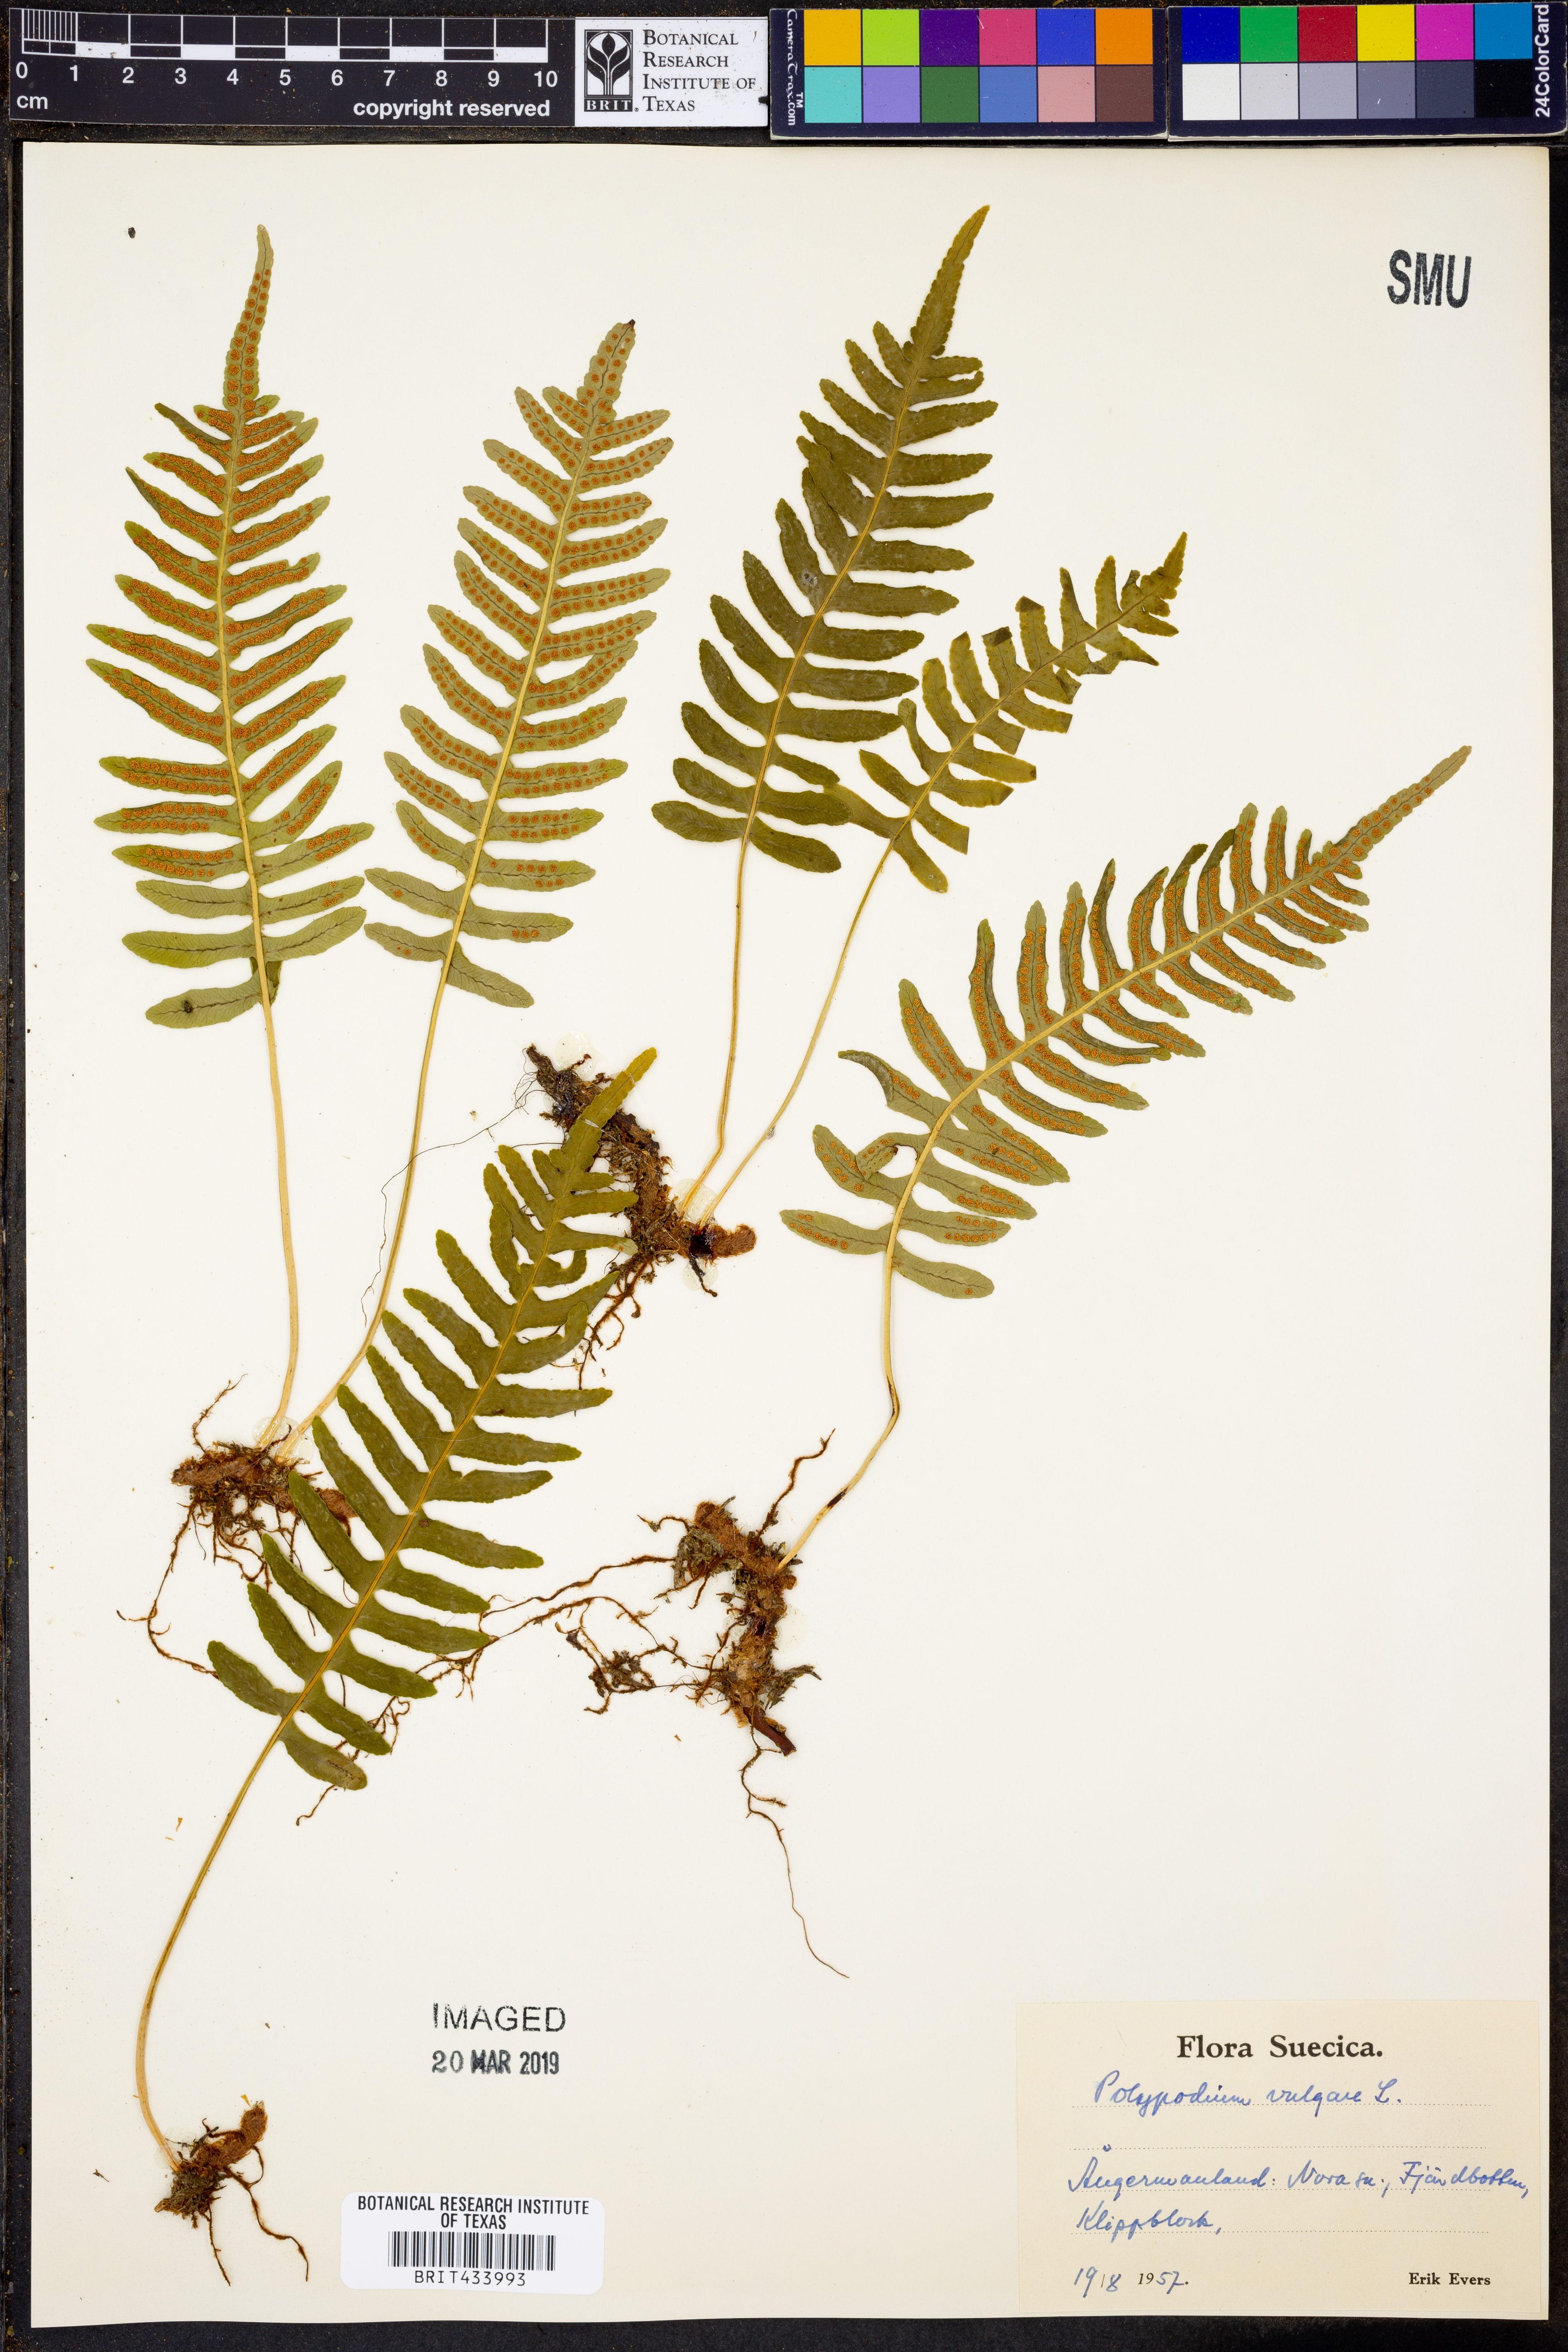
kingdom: Plantae
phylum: Tracheophyta
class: Polypodiopsida
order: Polypodiales
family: Polypodiaceae
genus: Polypodium
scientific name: Polypodium vulgare
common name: Common polypody
